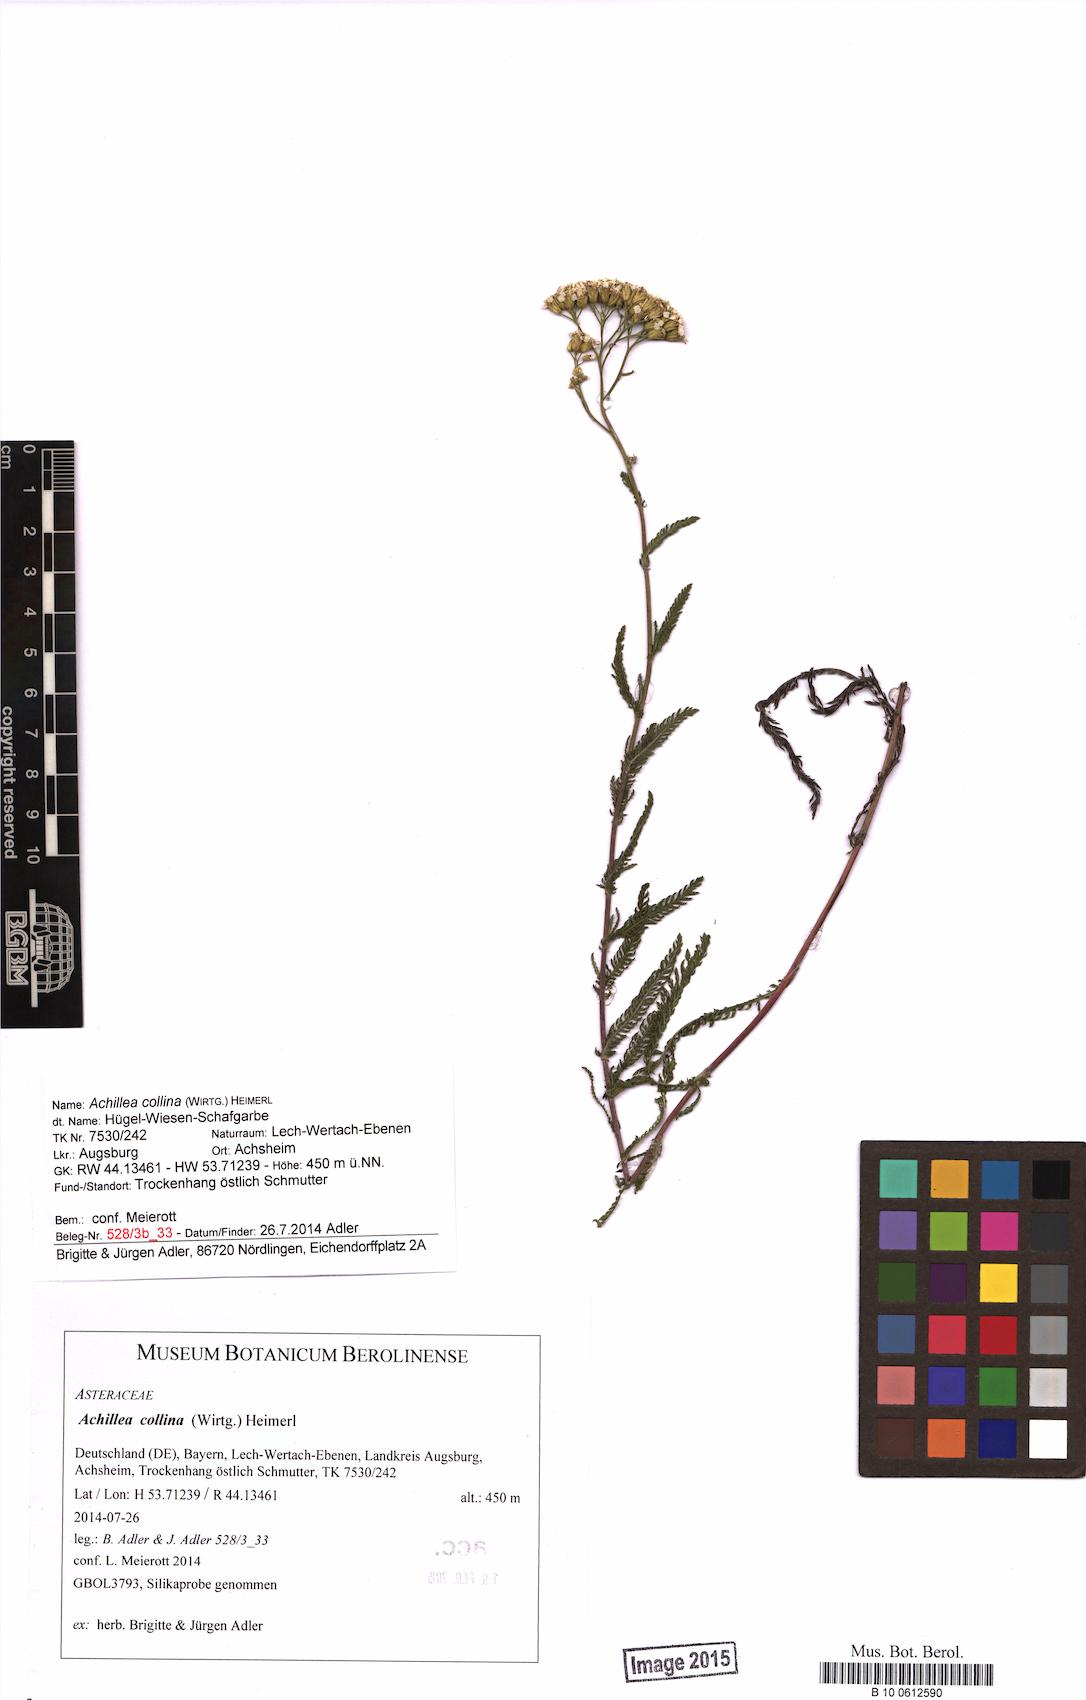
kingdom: Plantae
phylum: Tracheophyta
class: Magnoliopsida
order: Asterales
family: Asteraceae
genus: Achillea
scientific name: Achillea collina
